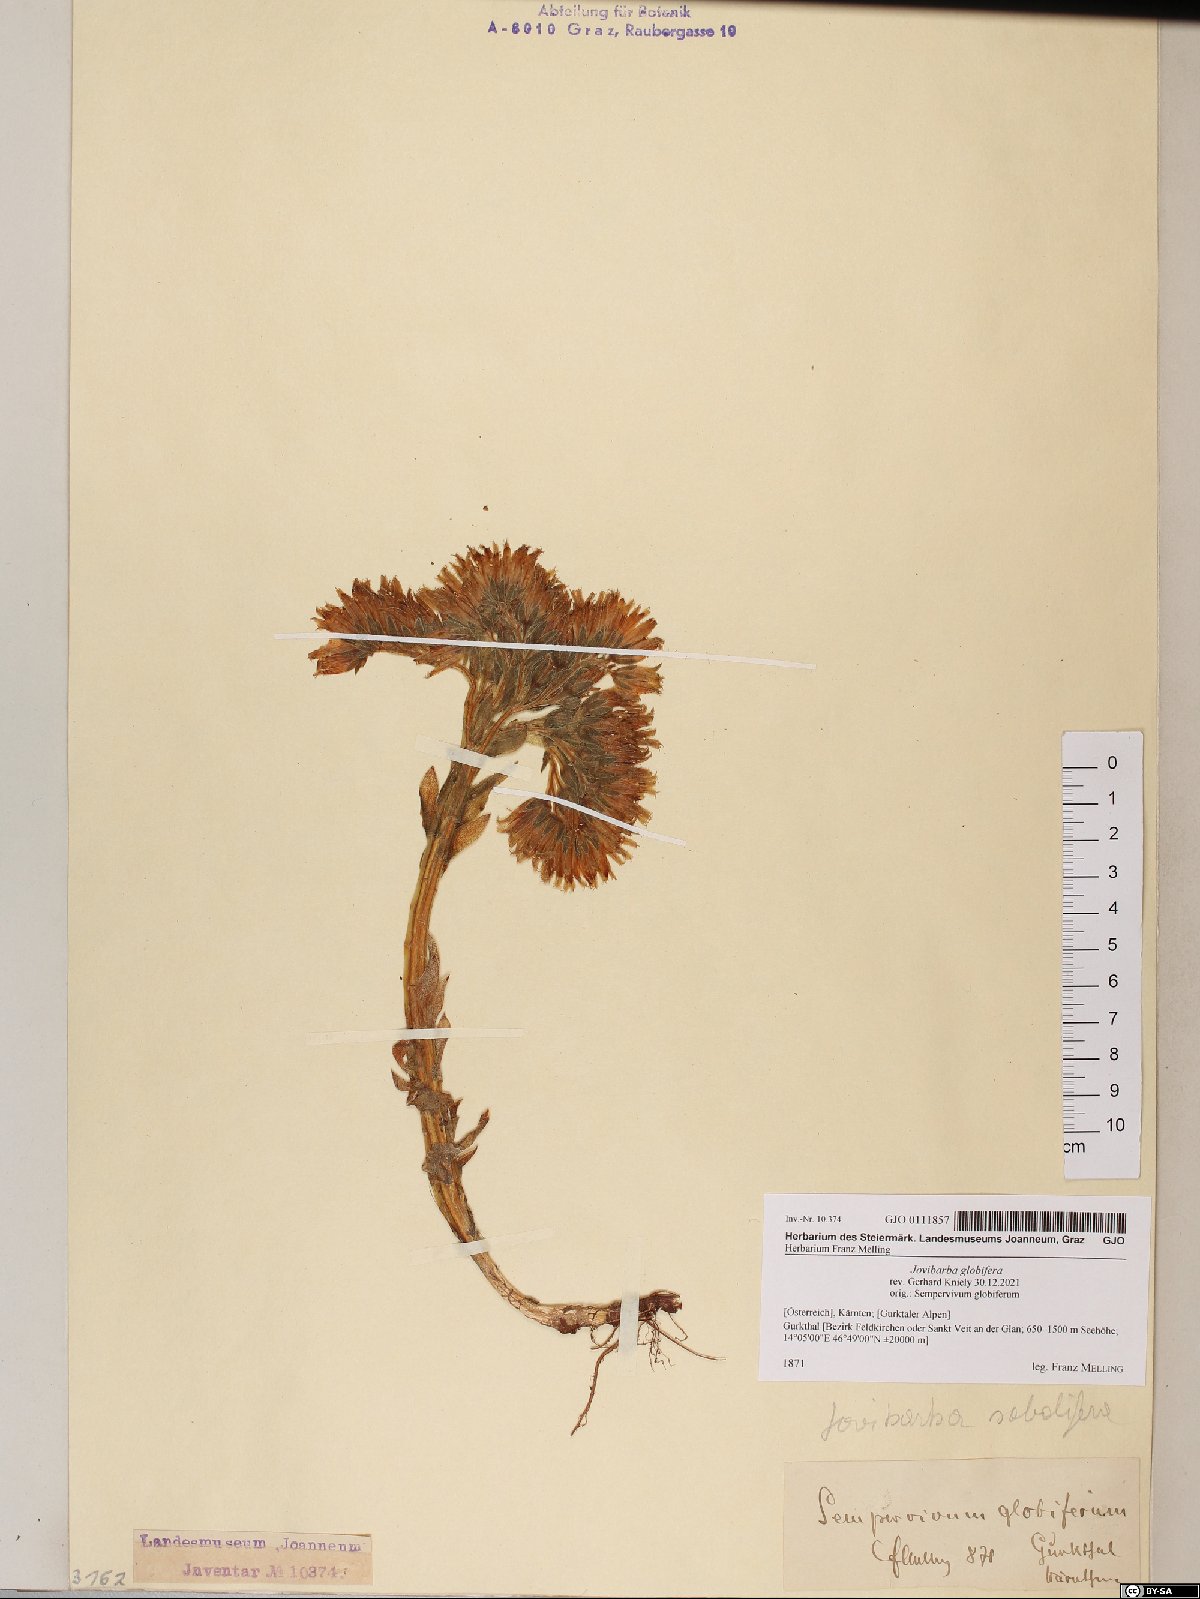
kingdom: Plantae
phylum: Tracheophyta
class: Magnoliopsida
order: Saxifragales
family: Crassulaceae
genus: Sempervivum
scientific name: Sempervivum globiferum
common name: Rolling hen-and-chicks
